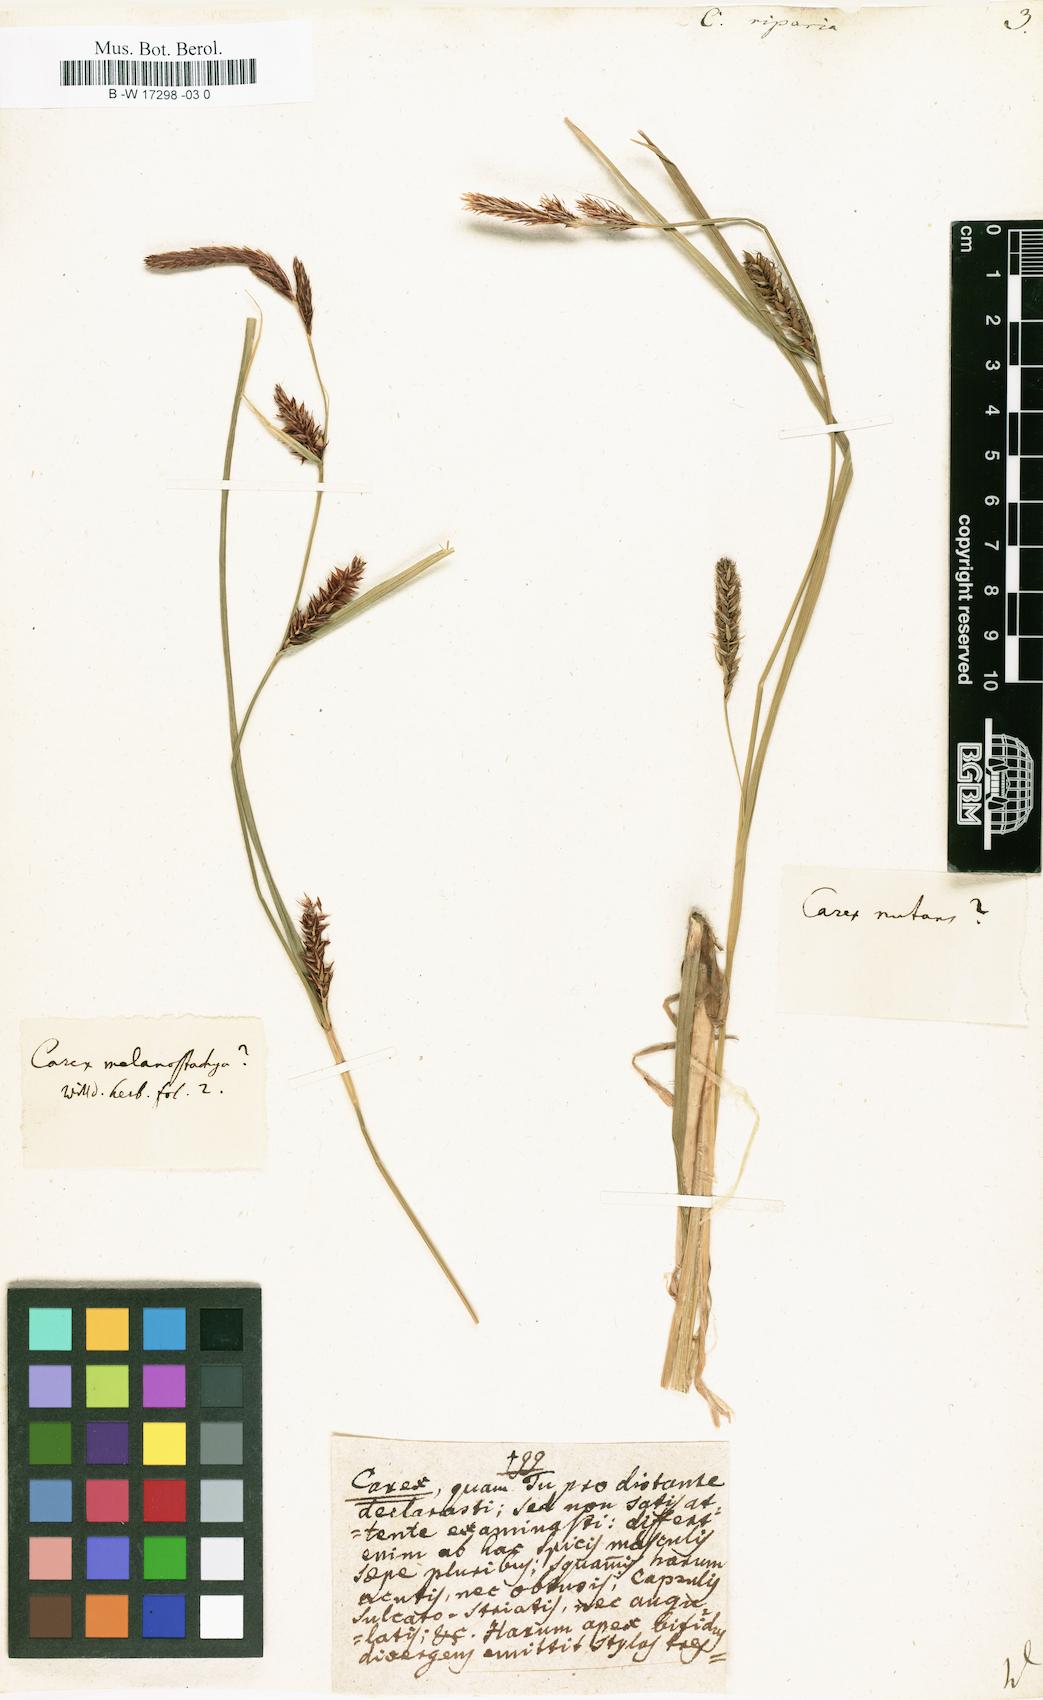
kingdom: Plantae
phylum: Tracheophyta
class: Liliopsida
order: Poales
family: Cyperaceae
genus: Carex
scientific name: Carex riparia
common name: Greater pond-sedge
